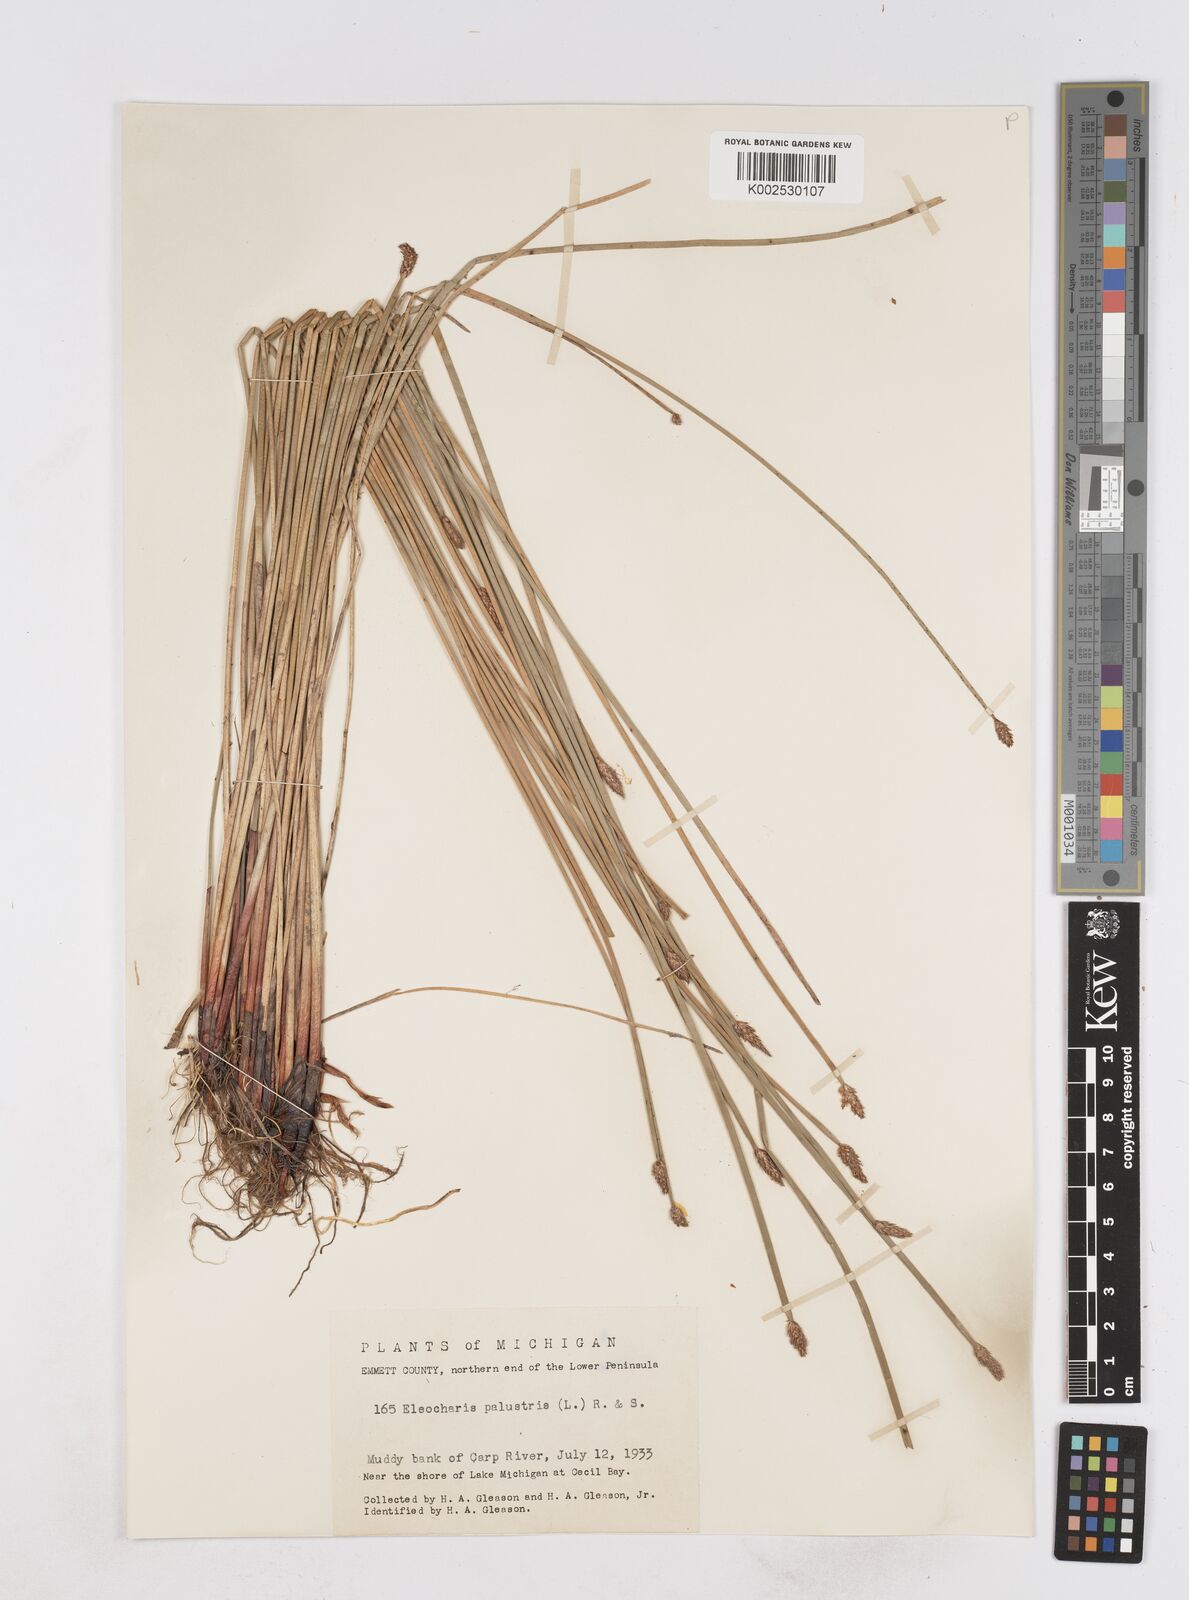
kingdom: Plantae
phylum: Tracheophyta
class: Liliopsida
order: Poales
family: Cyperaceae
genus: Eleocharis
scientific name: Eleocharis palustris
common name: Common spike-rush
